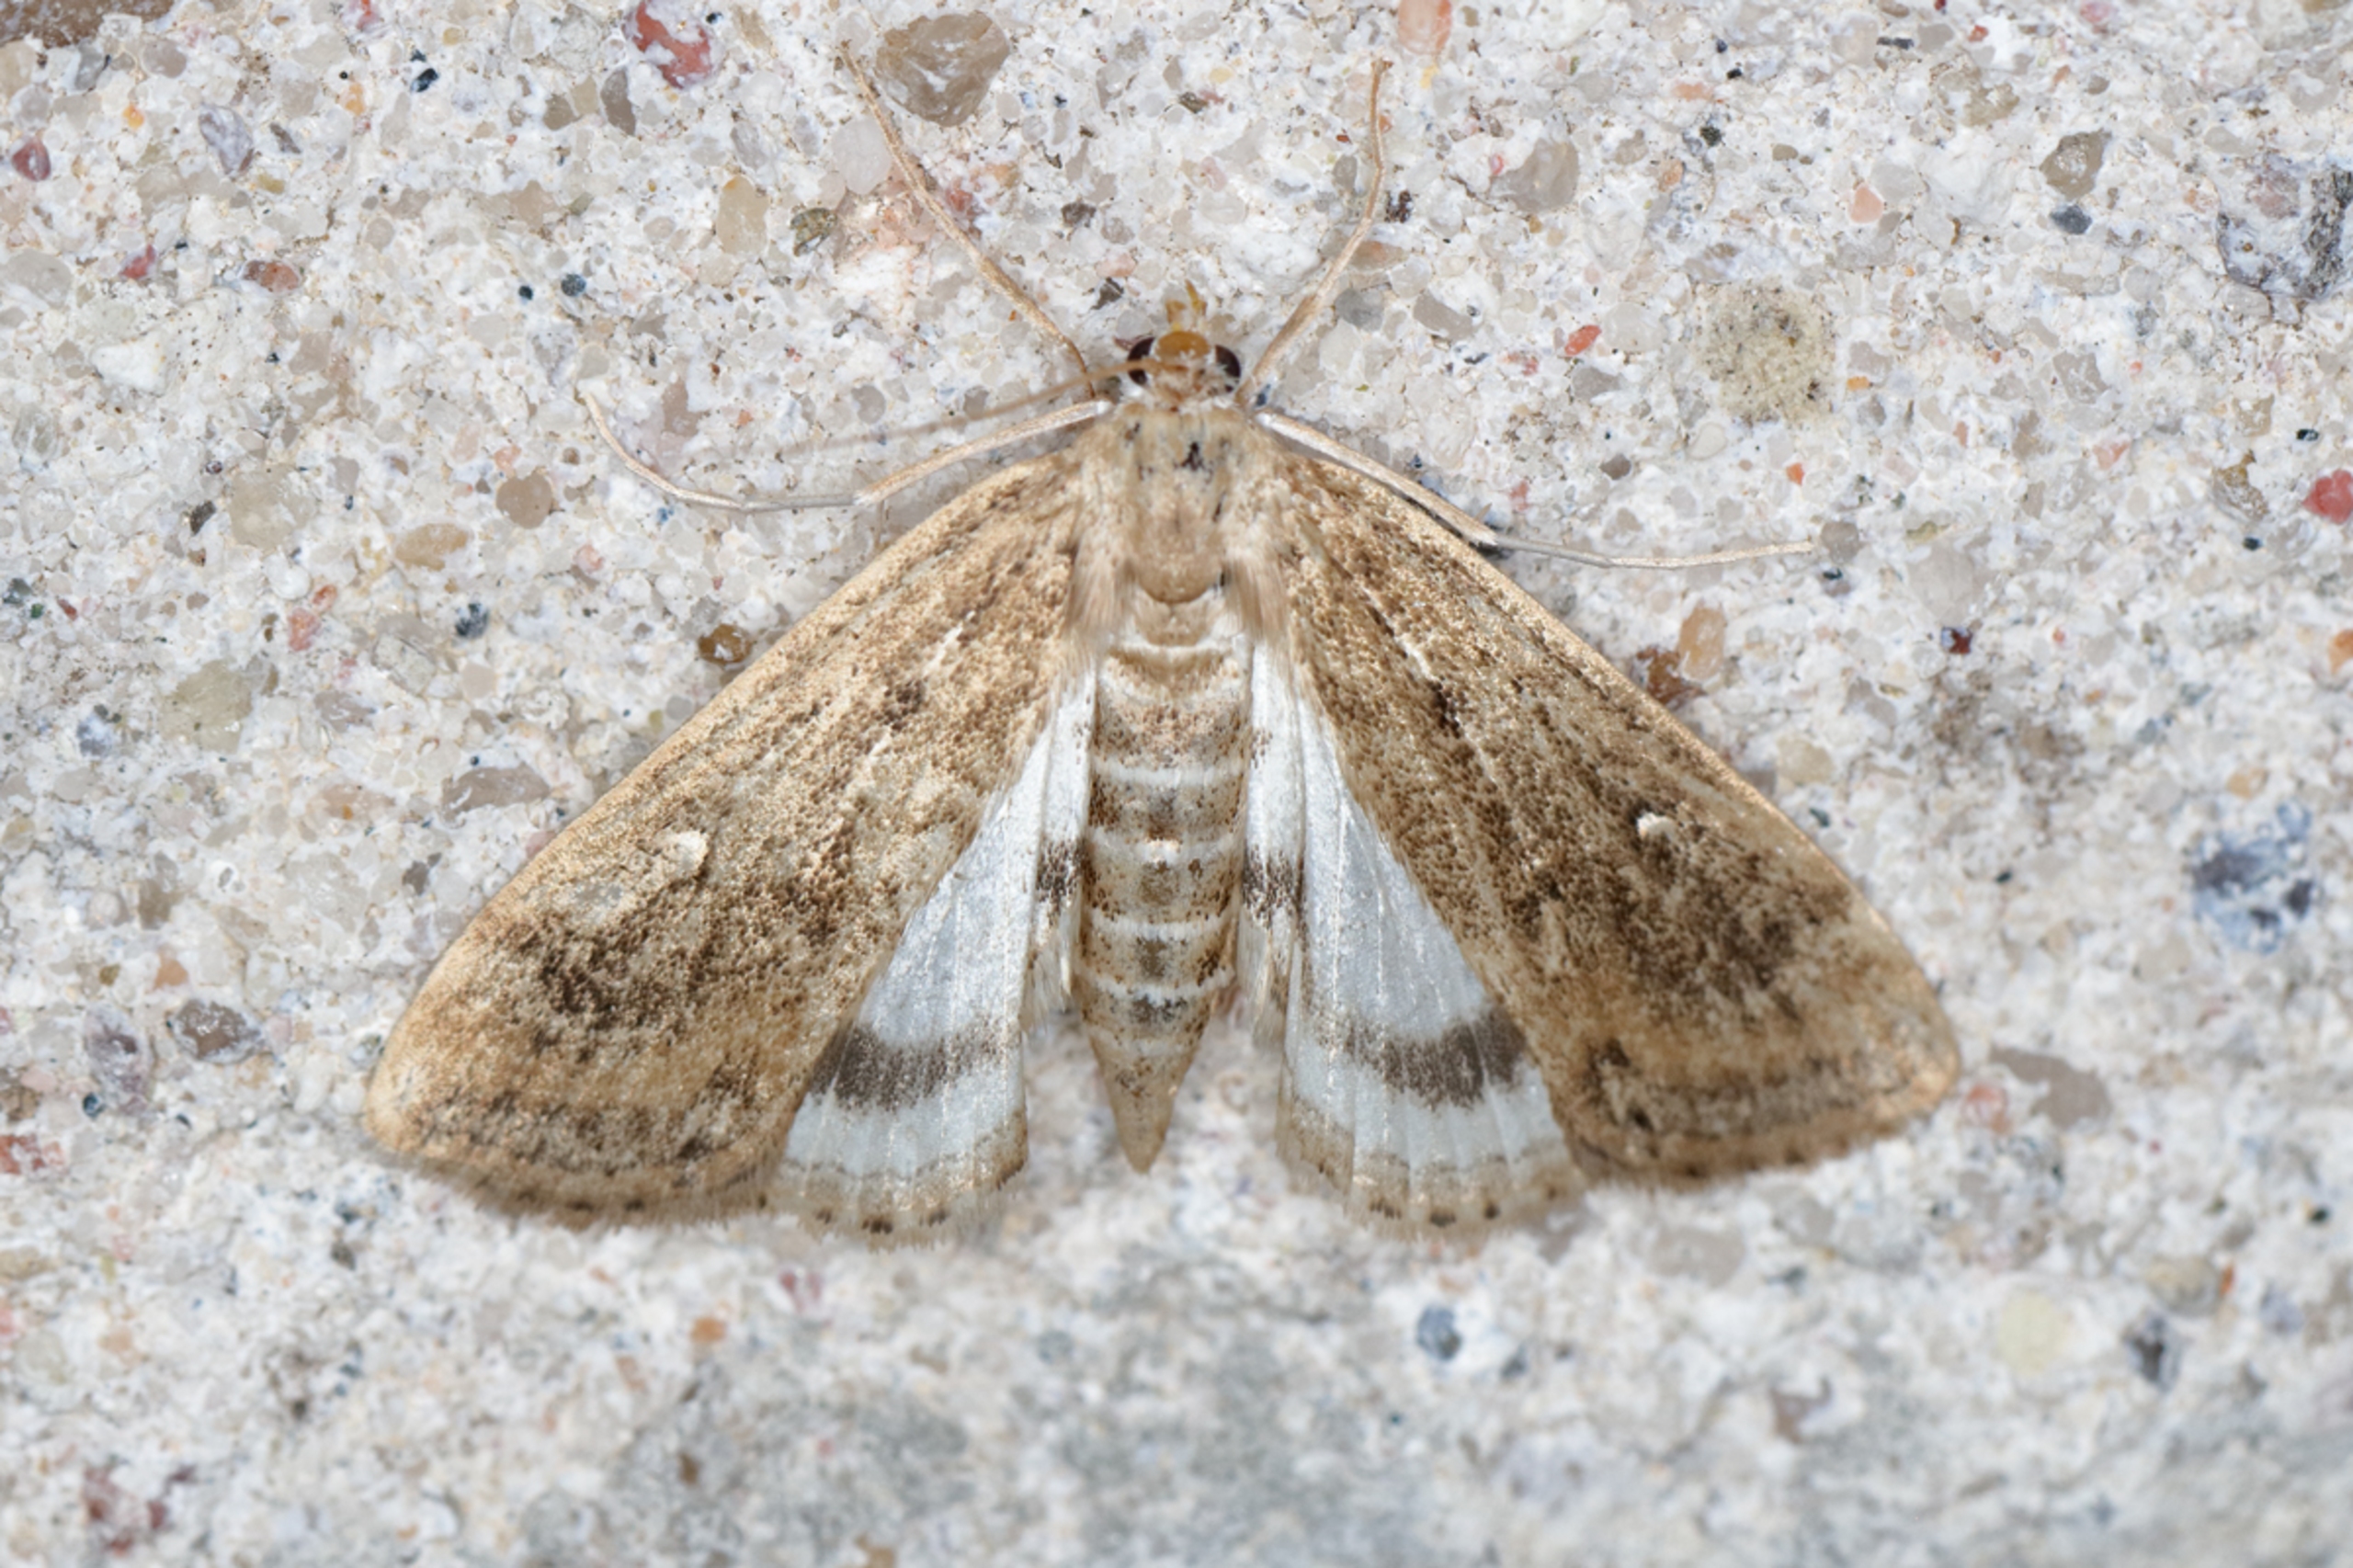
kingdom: Animalia
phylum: Arthropoda
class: Insecta
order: Lepidoptera
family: Crambidae
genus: Parapoynx
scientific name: Parapoynx stratiotata
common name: Vandpesthalvmøl
